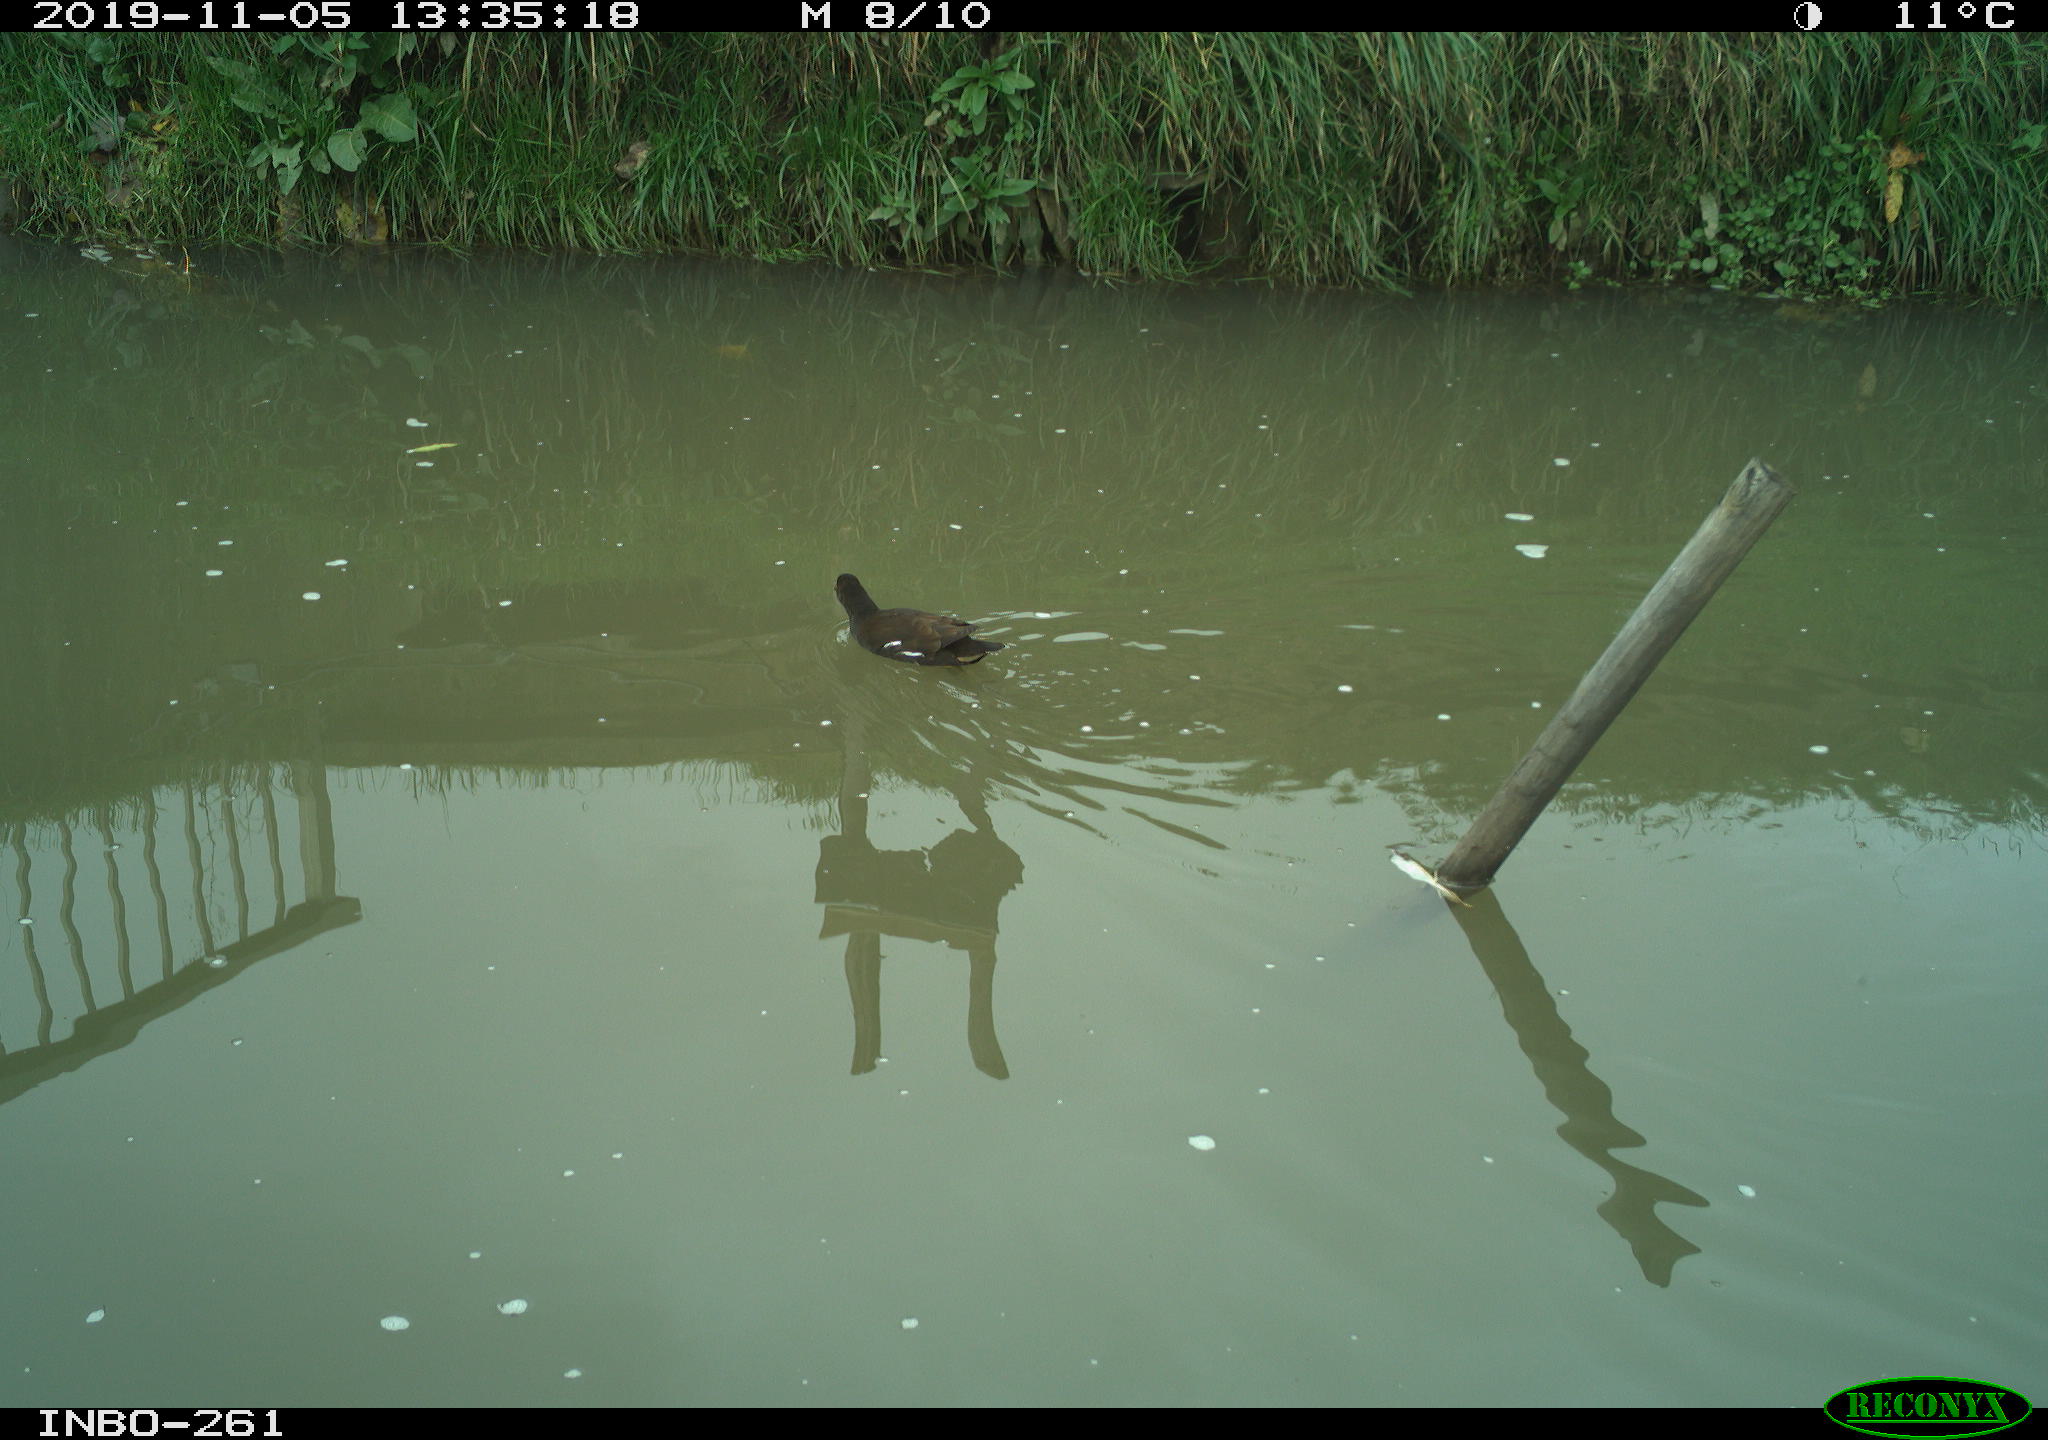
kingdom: Animalia
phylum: Chordata
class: Aves
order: Gruiformes
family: Rallidae
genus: Gallinula
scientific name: Gallinula chloropus
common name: Common moorhen
